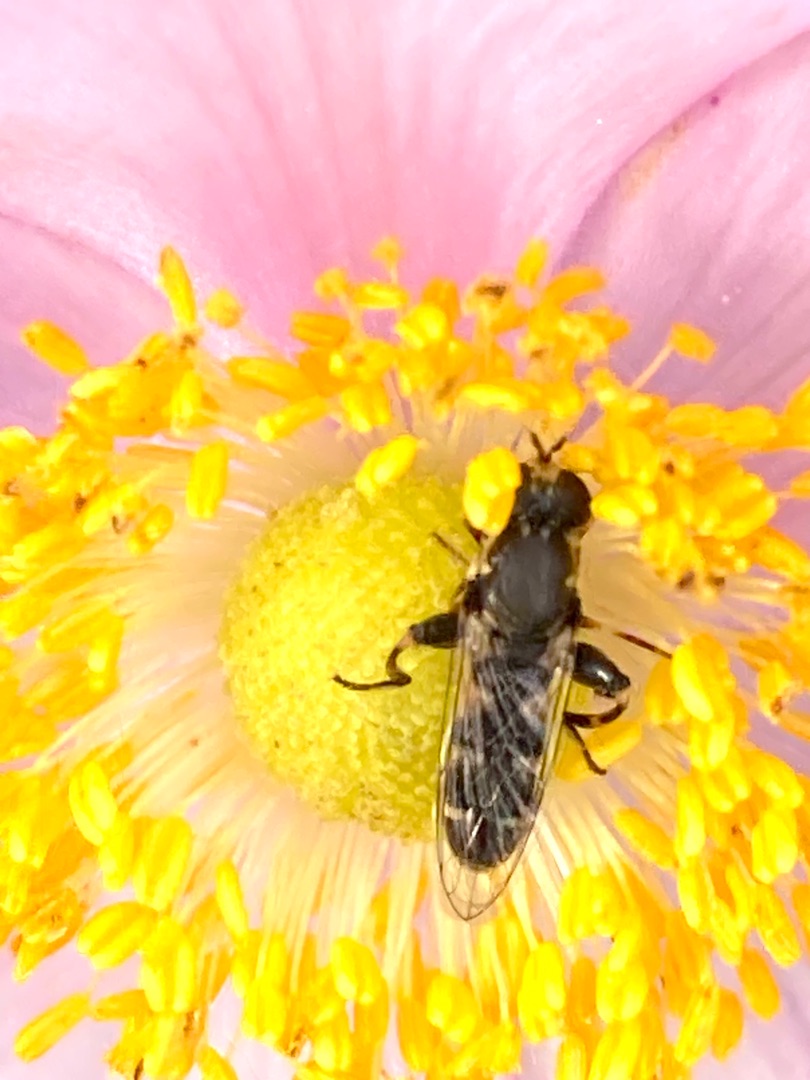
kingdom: Animalia
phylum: Arthropoda
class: Insecta
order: Diptera
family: Syrphidae
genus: Syritta
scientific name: Syritta pipiens
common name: Kompost-svirreflue
